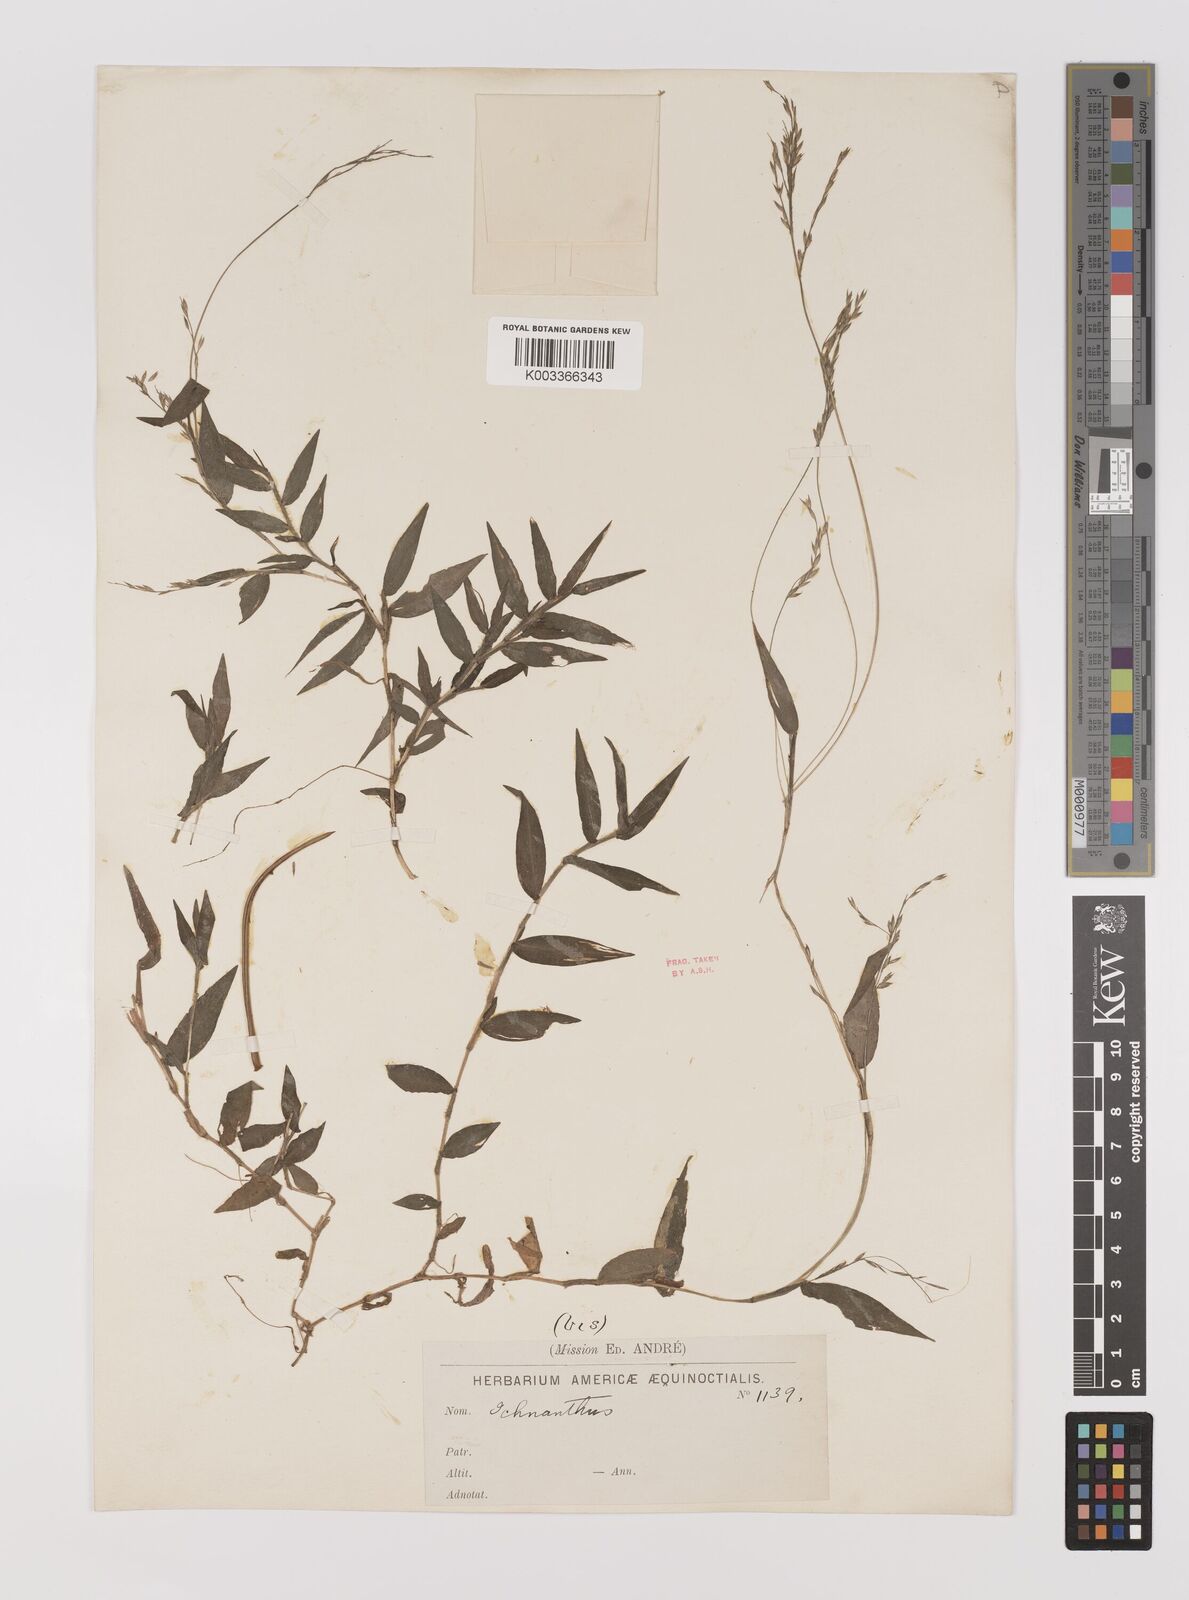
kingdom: Plantae
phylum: Tracheophyta
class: Liliopsida
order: Poales
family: Poaceae
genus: Ichnanthus
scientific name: Ichnanthus tenuis
